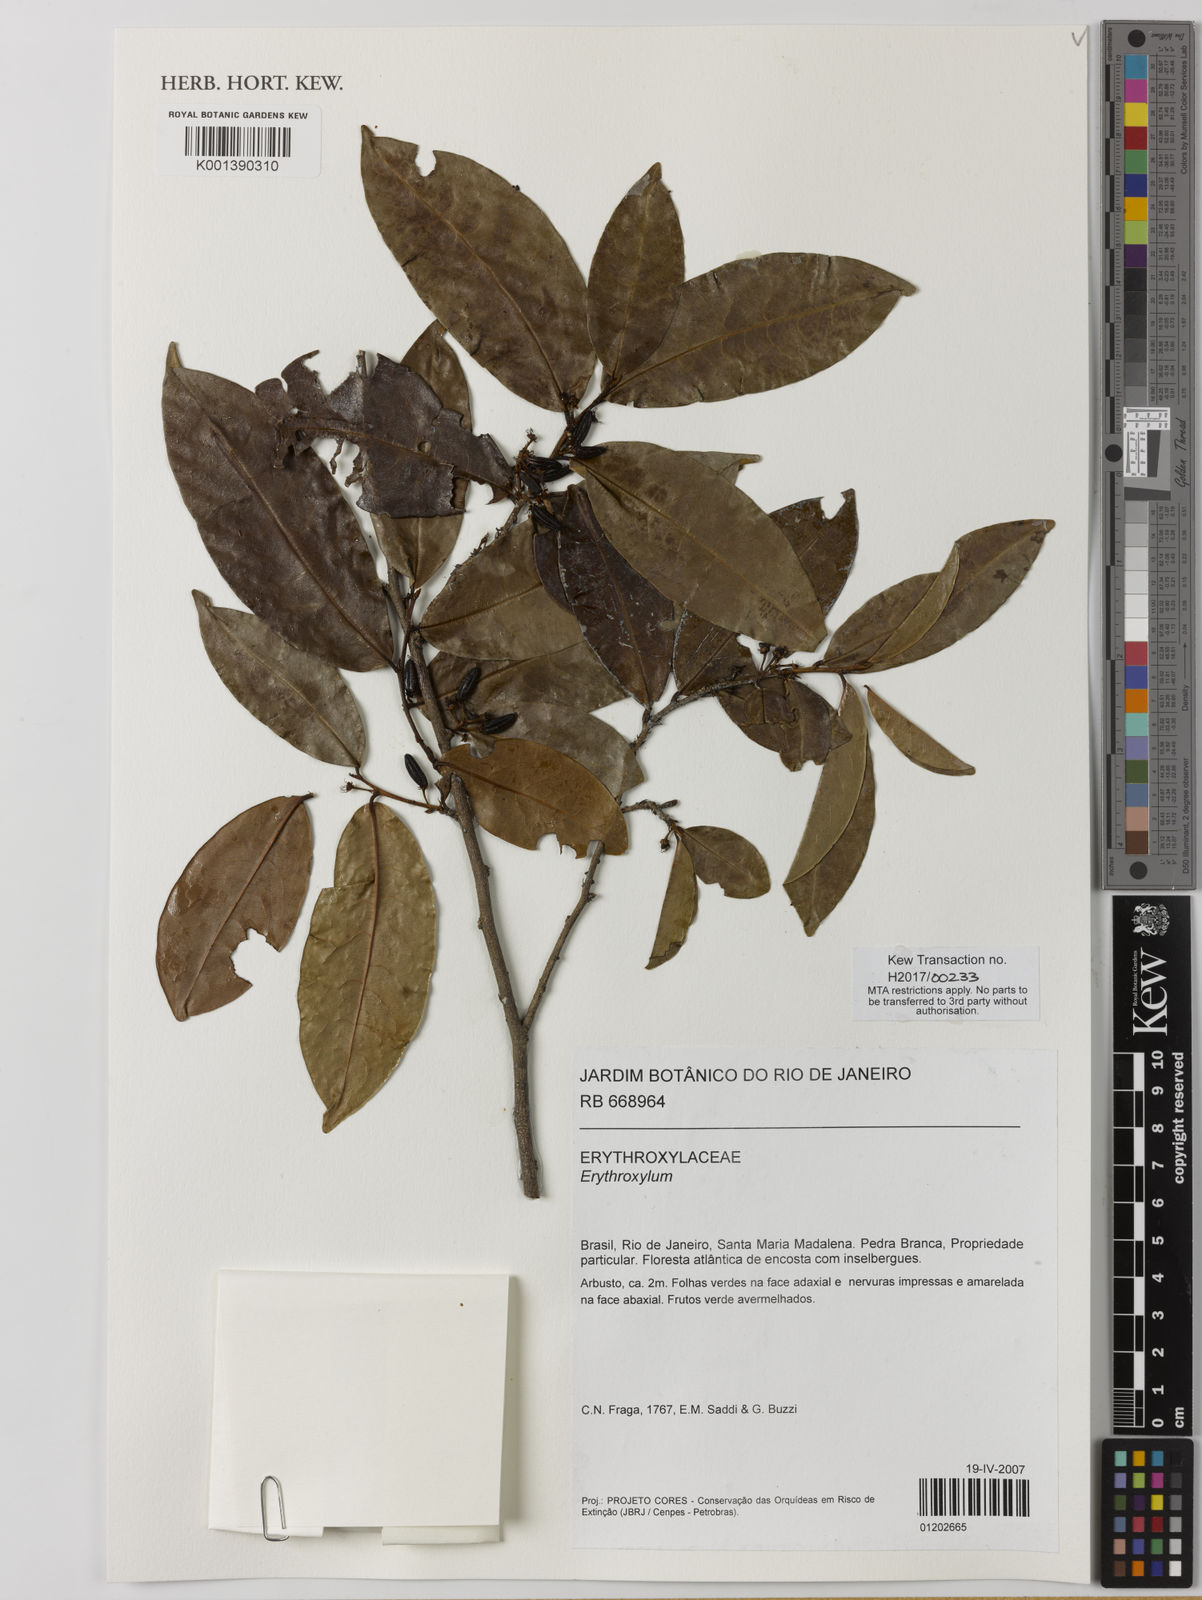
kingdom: Plantae
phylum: Tracheophyta
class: Magnoliopsida
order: Malpighiales
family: Erythroxylaceae
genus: Erythroxylum
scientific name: Erythroxylum
